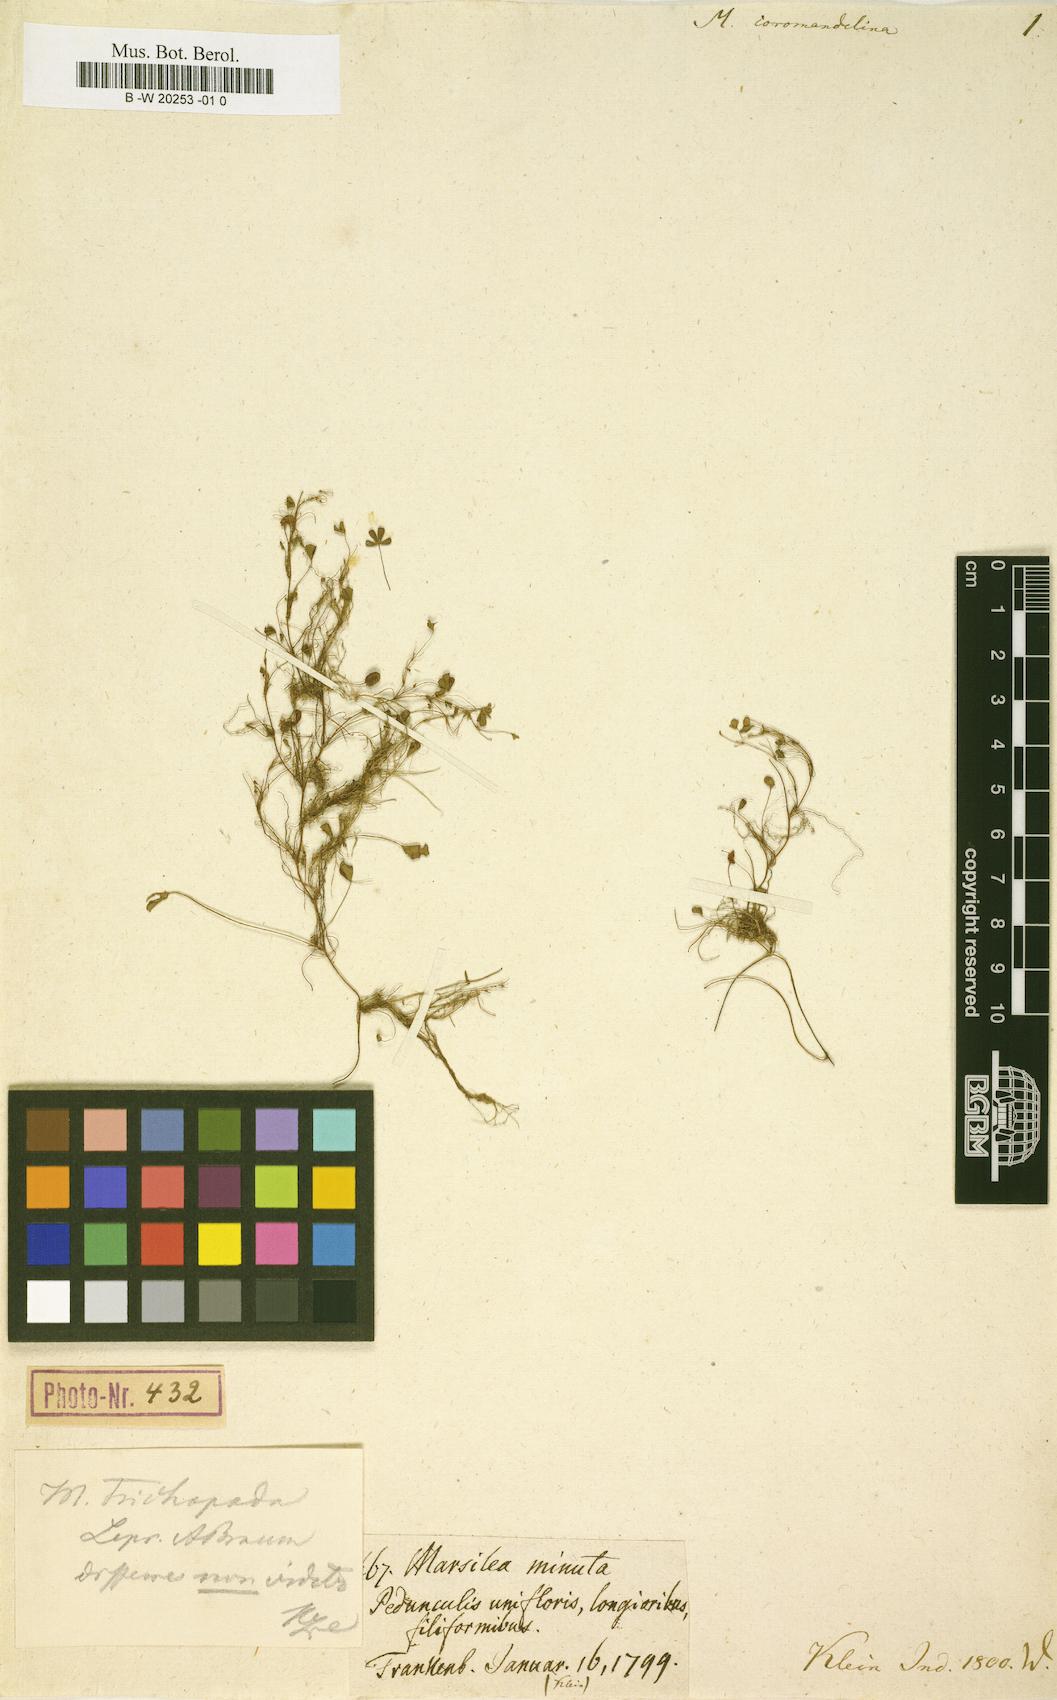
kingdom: Plantae
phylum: Tracheophyta
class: Polypodiopsida
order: Salviniales
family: Marsileaceae
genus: Marsilea
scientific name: Marsilea coromandelina
